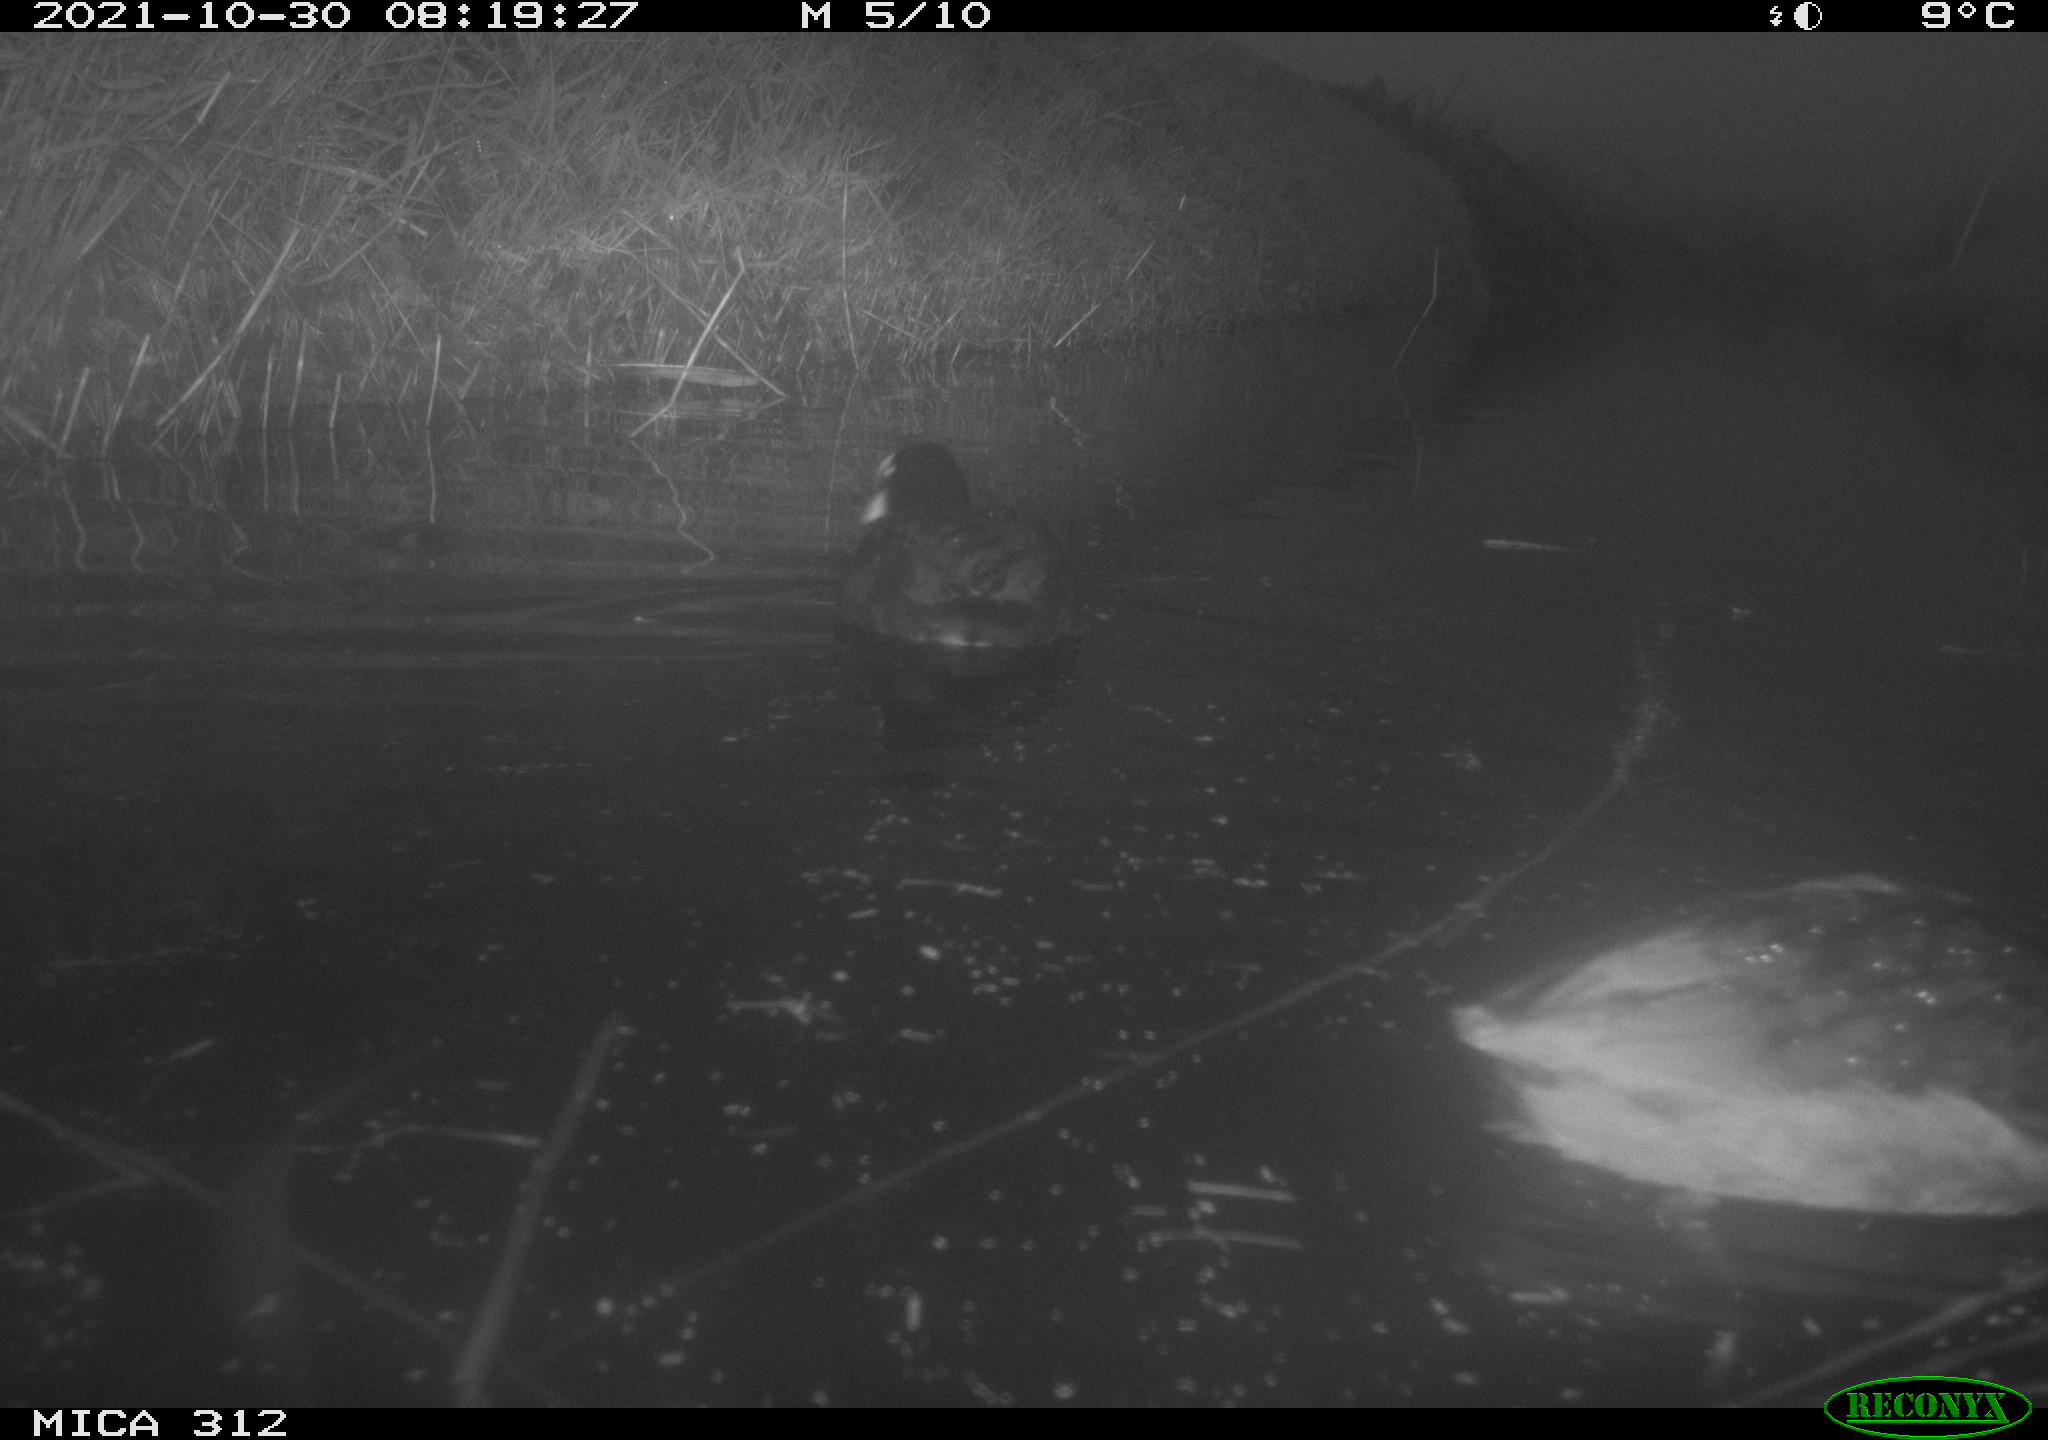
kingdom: Animalia
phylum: Chordata
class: Aves
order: Gruiformes
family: Rallidae
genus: Gallinula
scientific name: Gallinula chloropus
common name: Common moorhen
